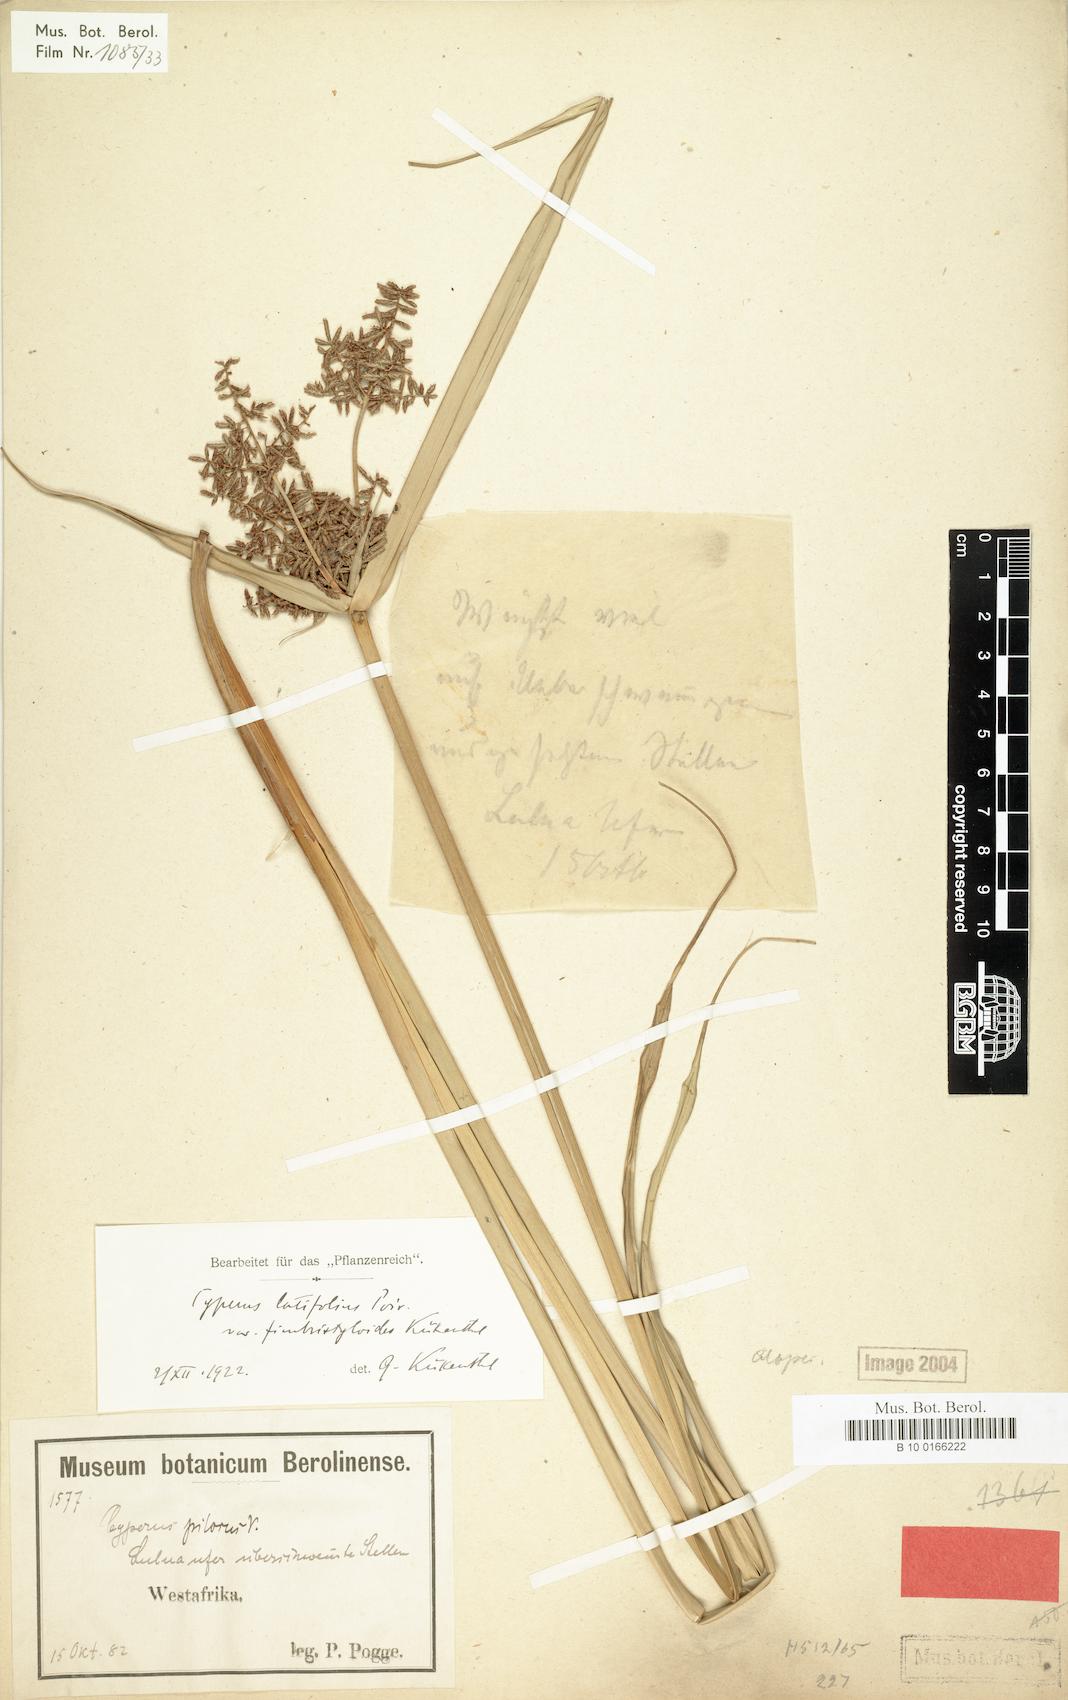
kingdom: Plantae
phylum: Tracheophyta
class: Liliopsida
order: Poales
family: Cyperaceae
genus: Cyperus
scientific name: Cyperus latifolius
